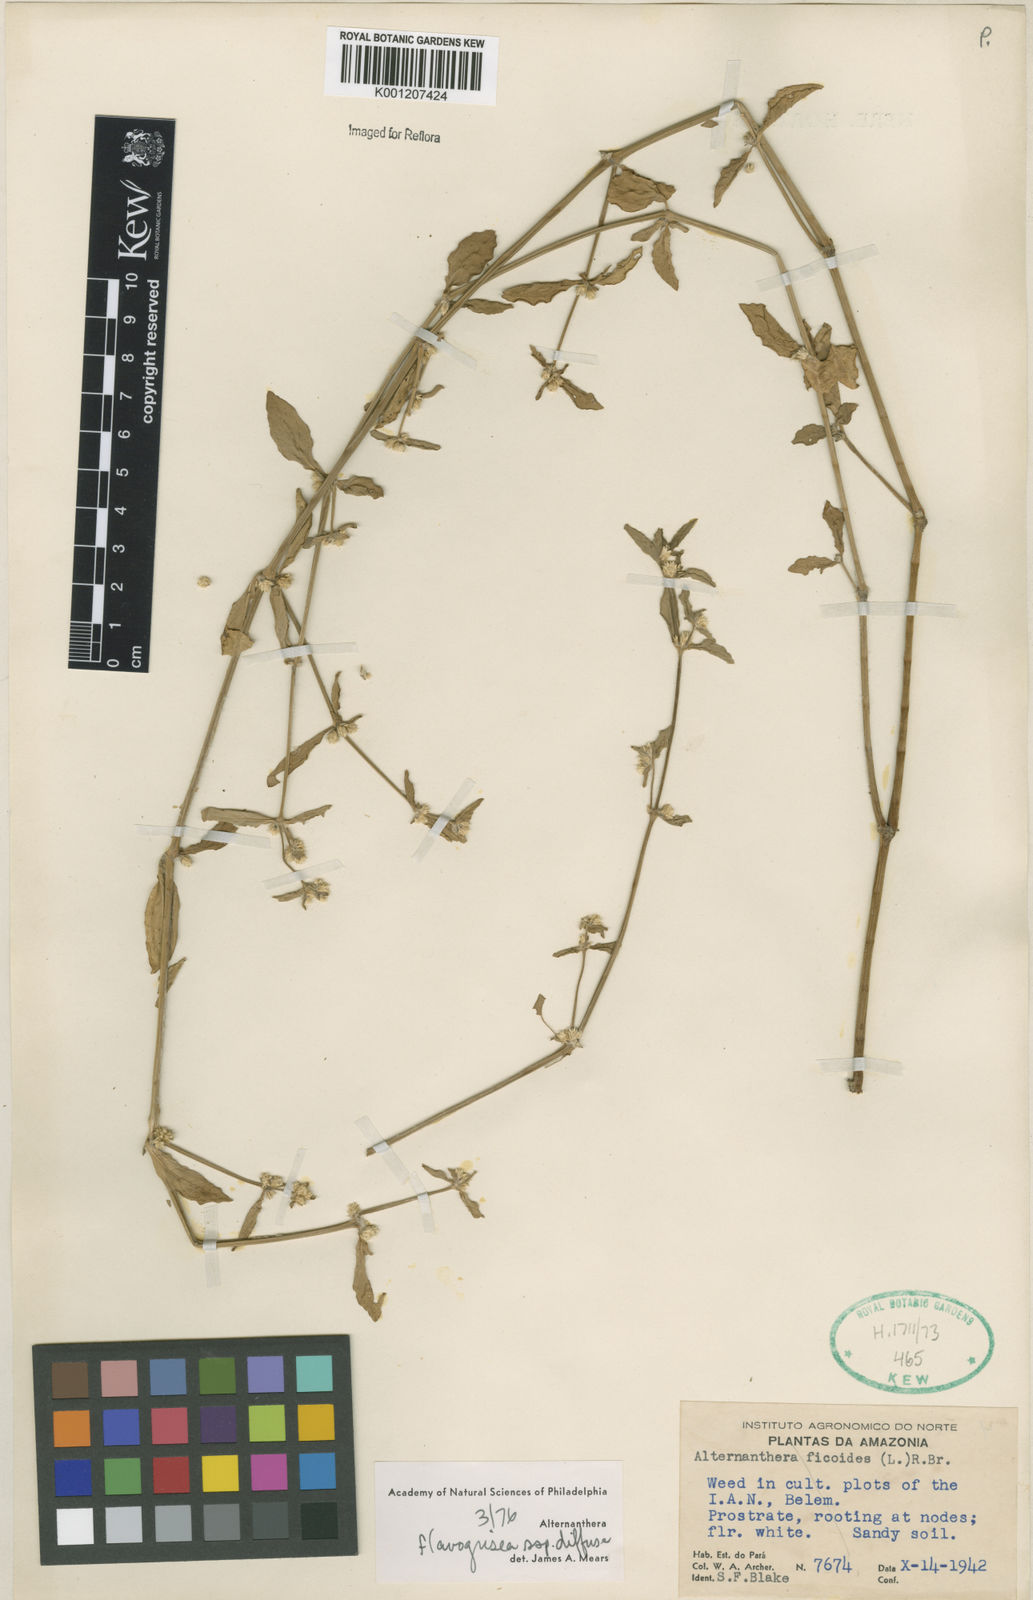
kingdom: Plantae
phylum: Tracheophyta
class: Magnoliopsida
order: Caryophyllales
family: Amaranthaceae
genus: Alternanthera
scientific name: Alternanthera halimifolia
